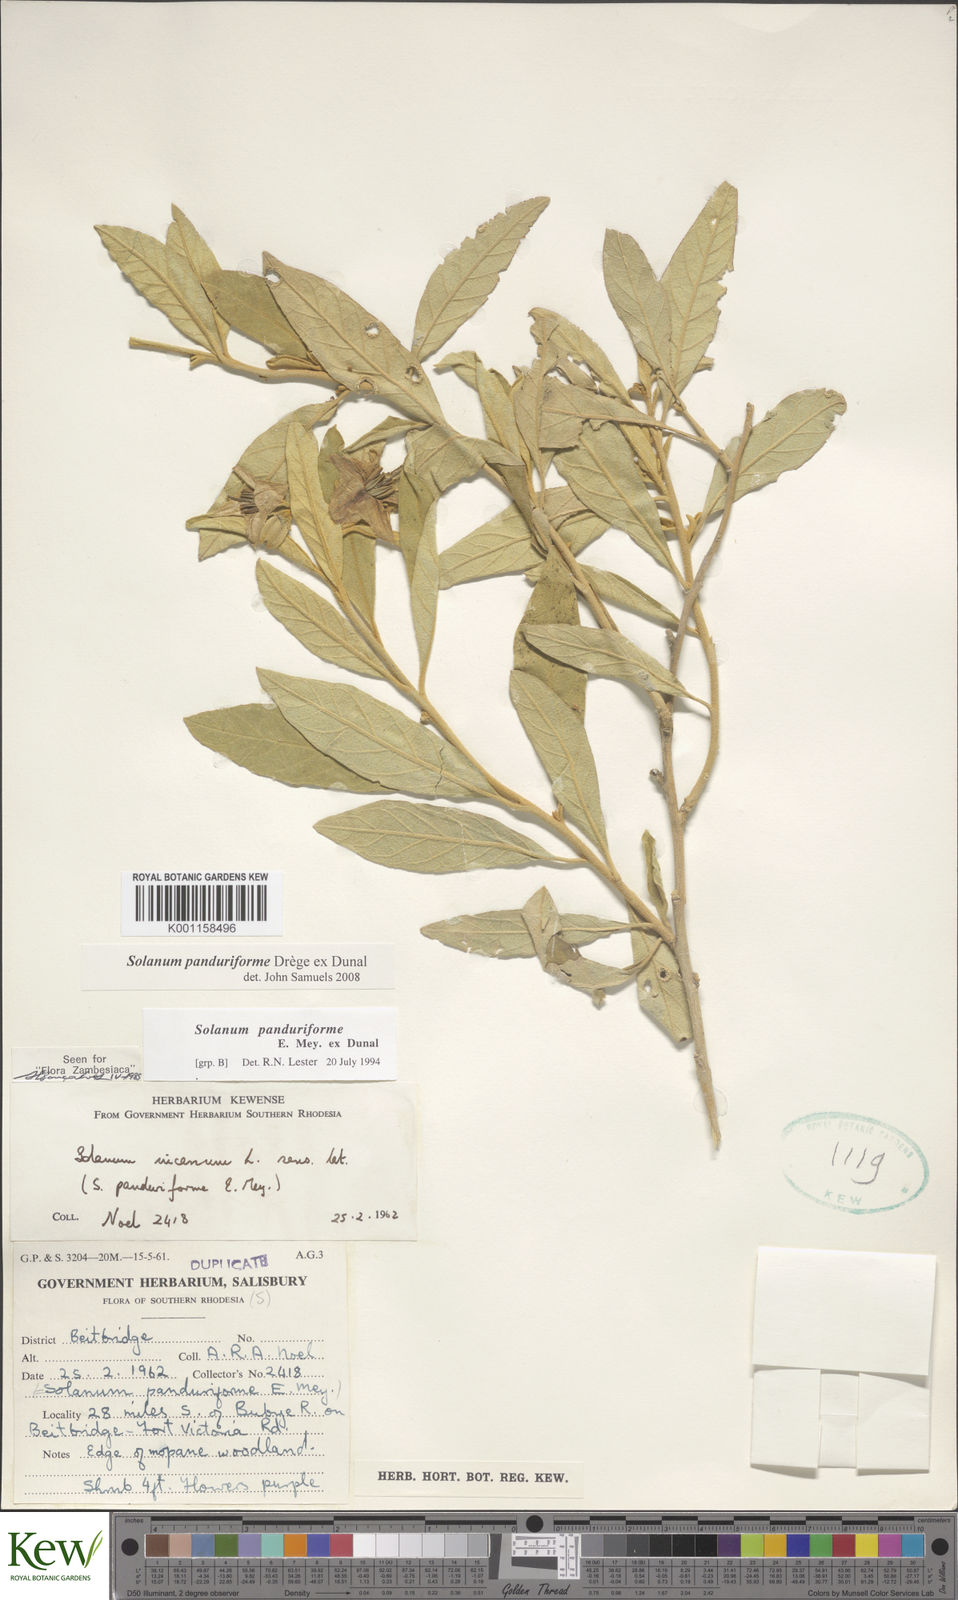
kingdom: Plantae
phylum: Tracheophyta
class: Magnoliopsida
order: Solanales
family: Solanaceae
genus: Solanum
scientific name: Solanum campylacanthum
